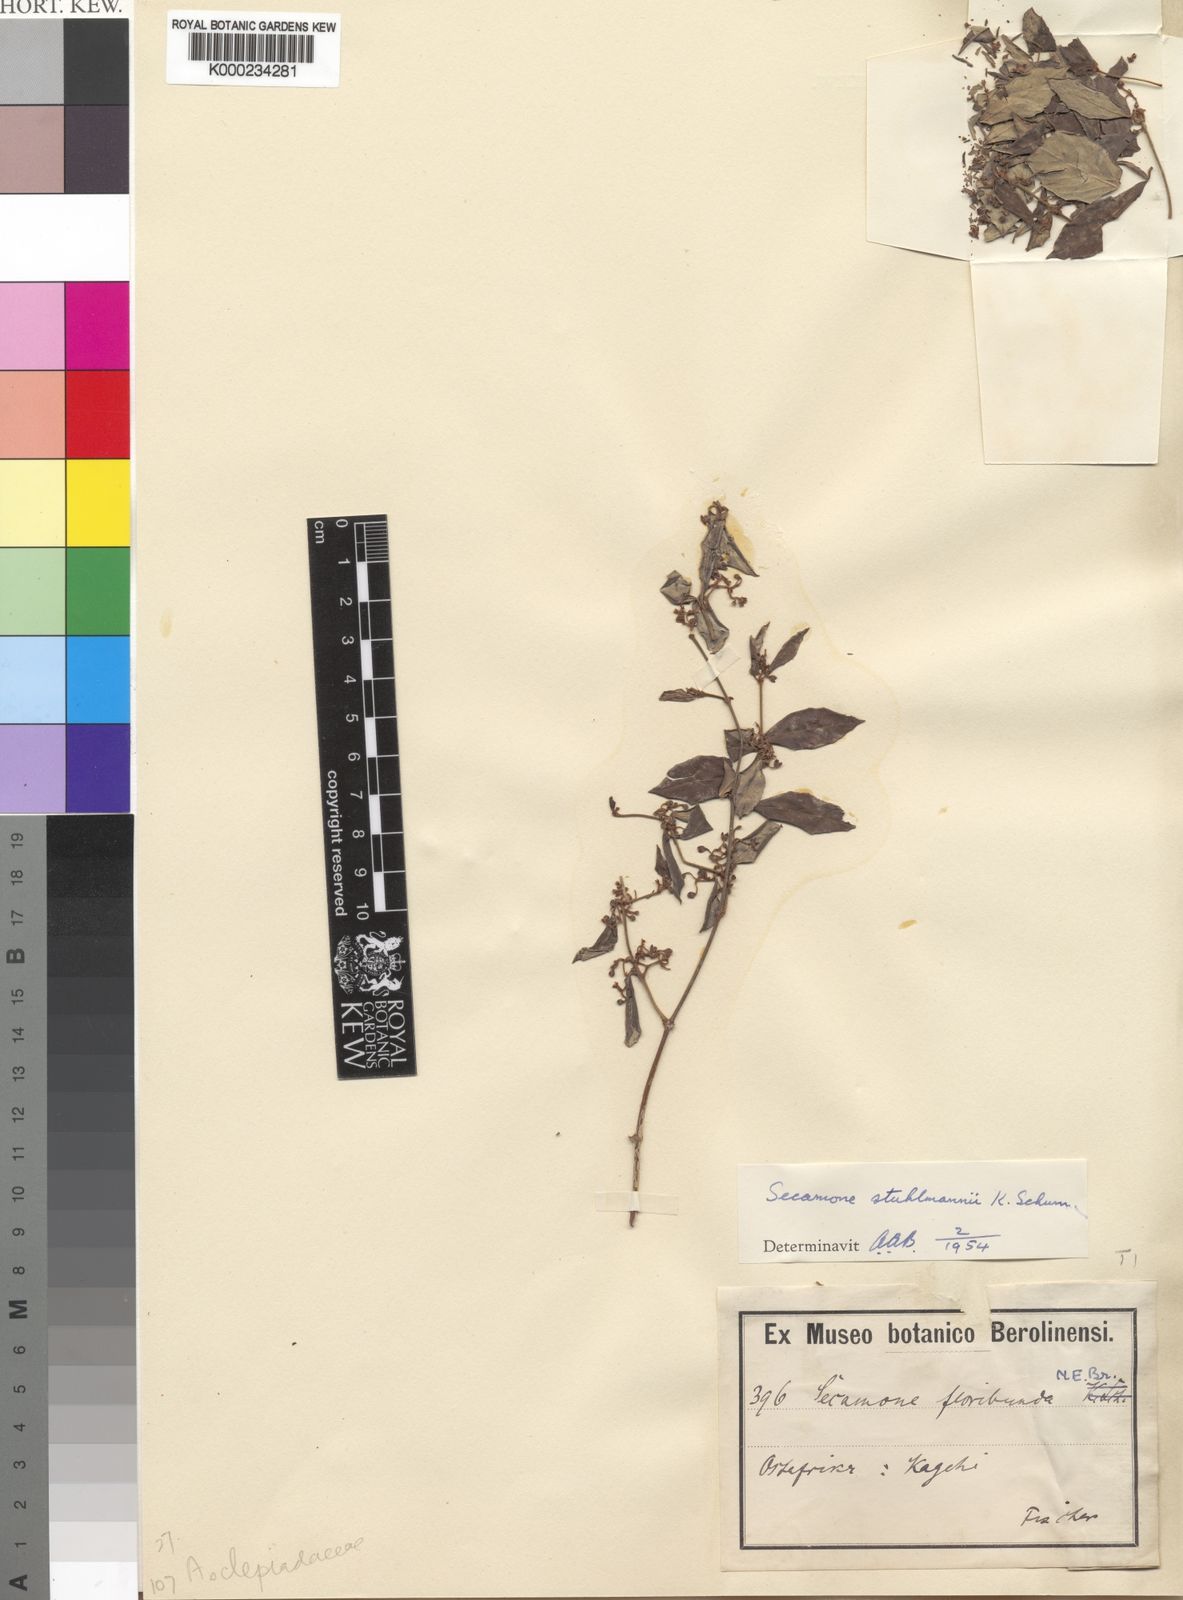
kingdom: Plantae
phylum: Tracheophyta
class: Magnoliopsida
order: Gentianales
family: Apocynaceae
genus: Secamone
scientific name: Secamone stuhlmannii
